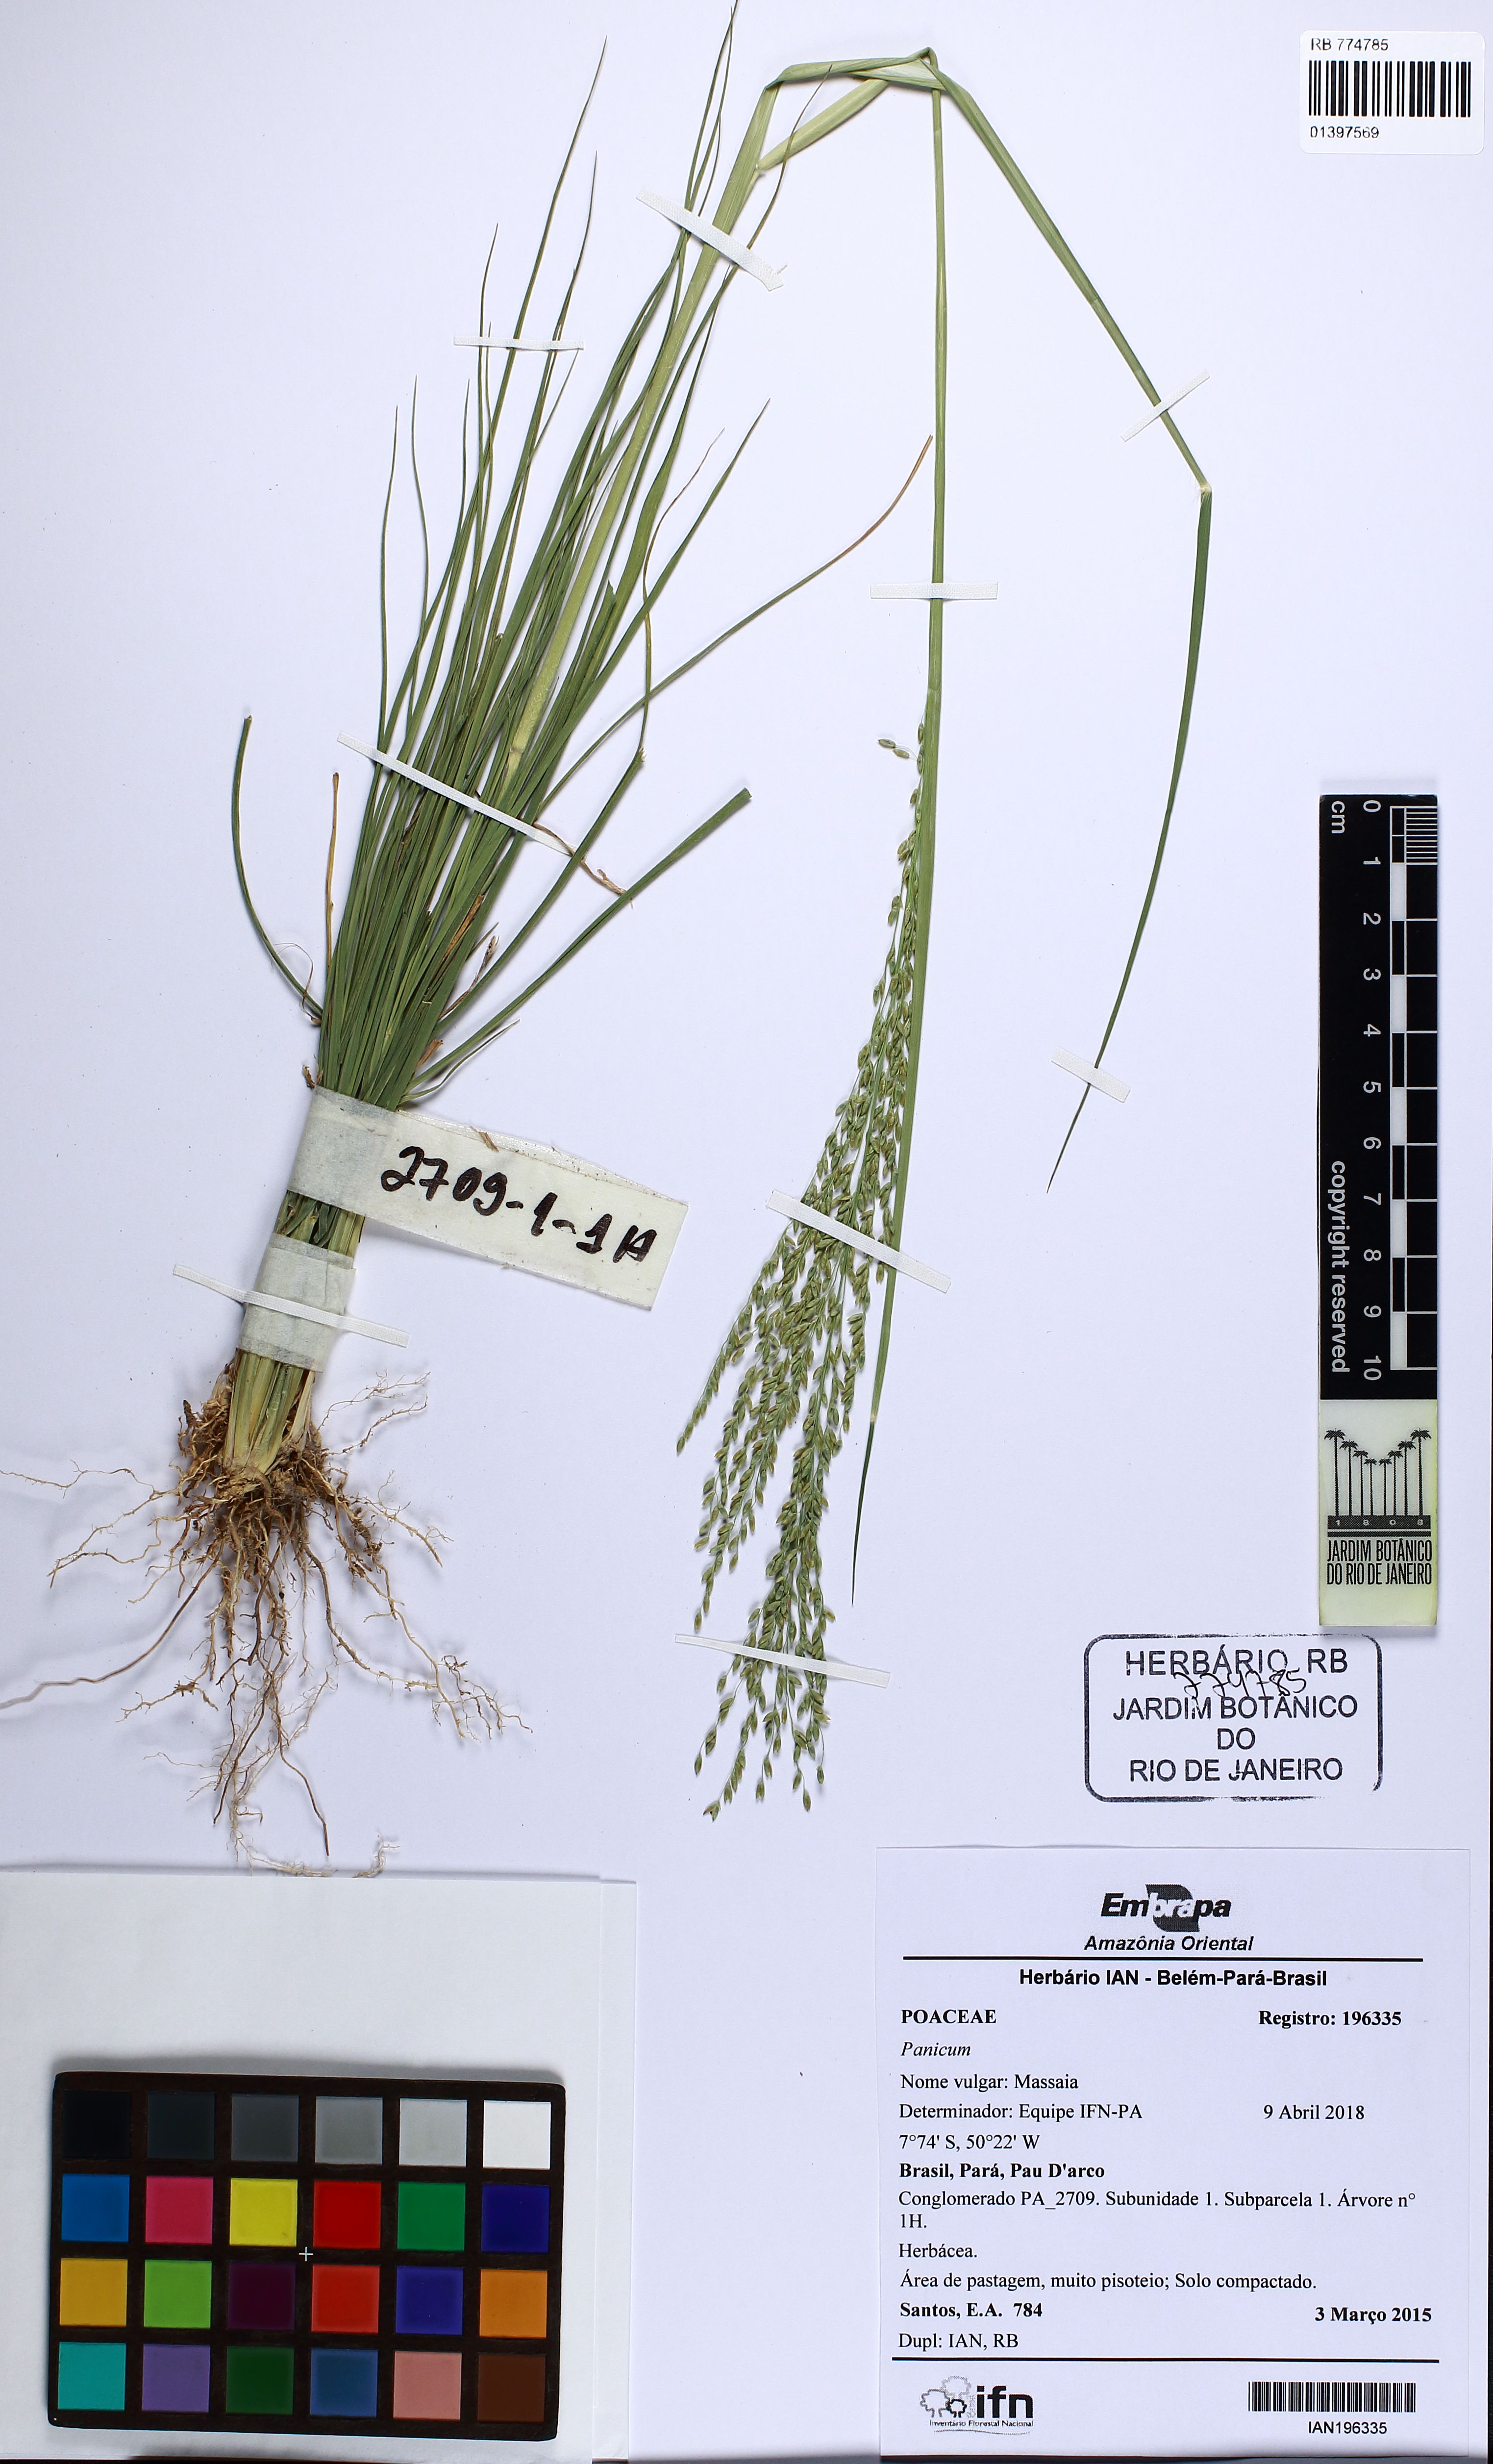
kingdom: Plantae
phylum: Tracheophyta
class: Liliopsida
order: Poales
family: Poaceae
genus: Panicum
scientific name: Panicum
